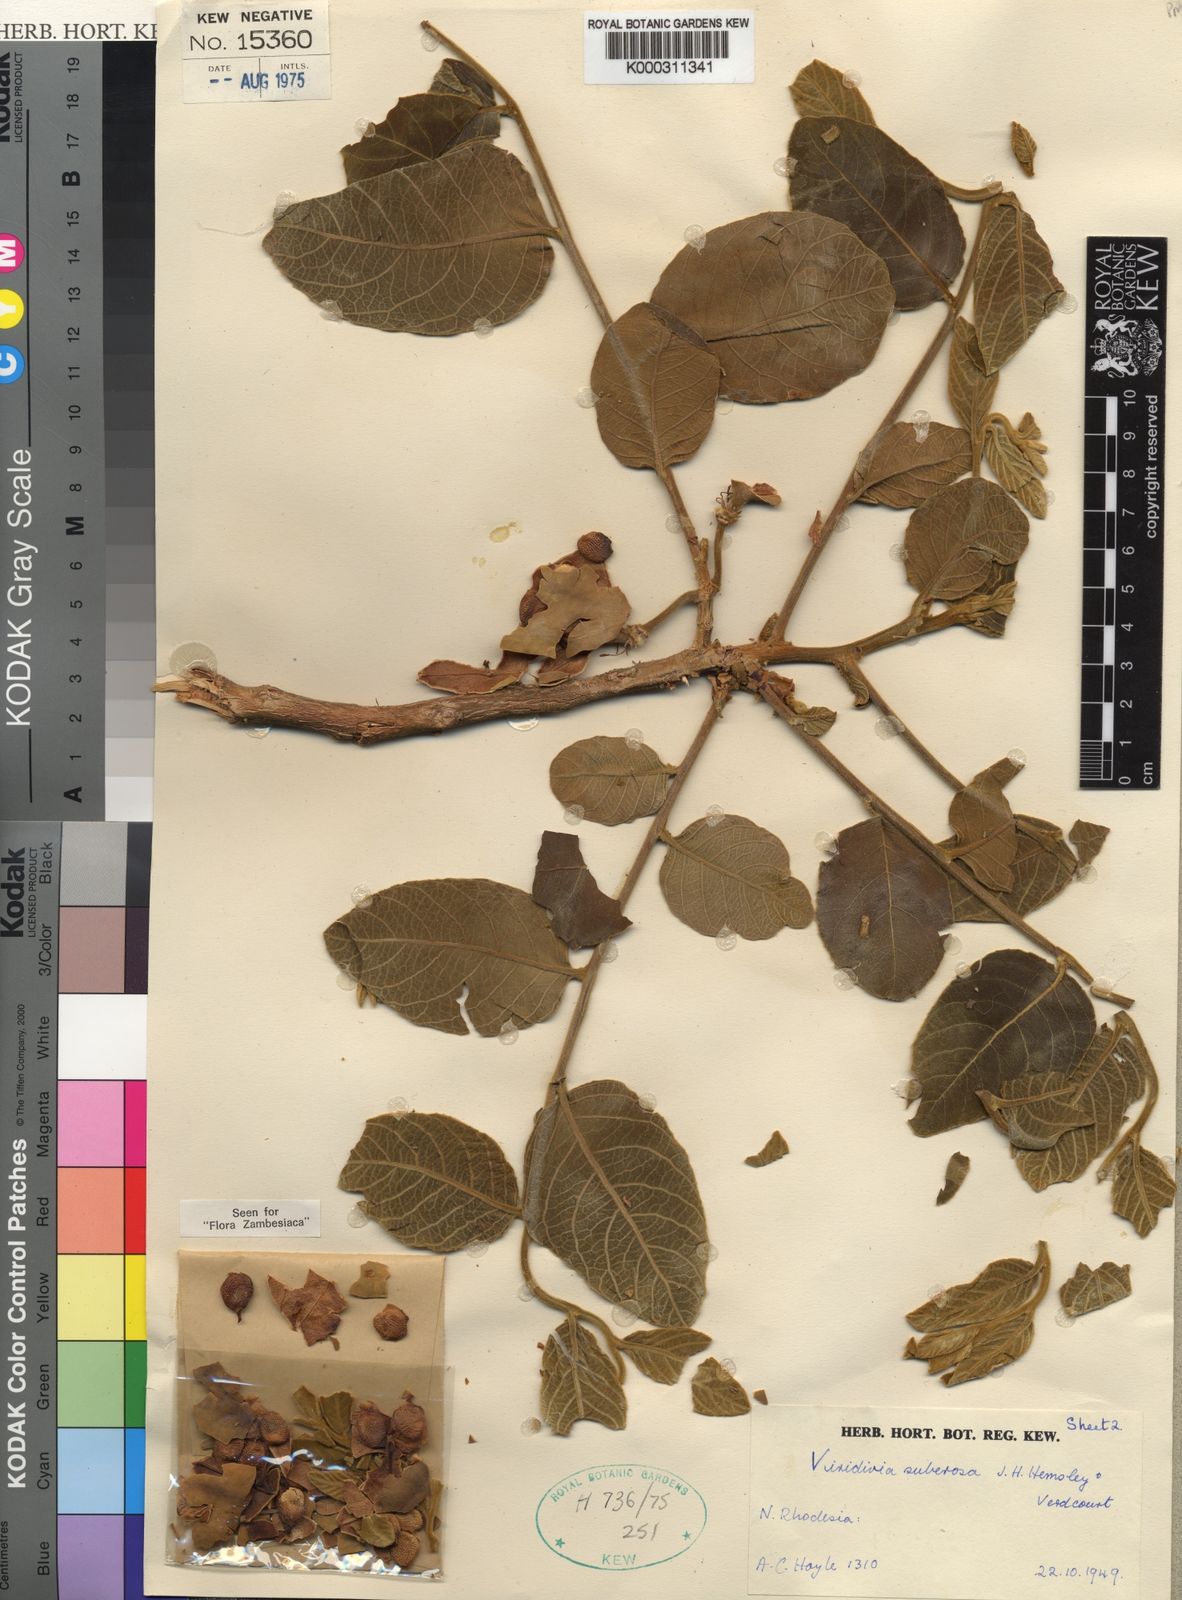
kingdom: Plantae
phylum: Tracheophyta
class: Magnoliopsida
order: Malpighiales
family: Passifloraceae
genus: Viridivia
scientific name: Viridivia suberosa
